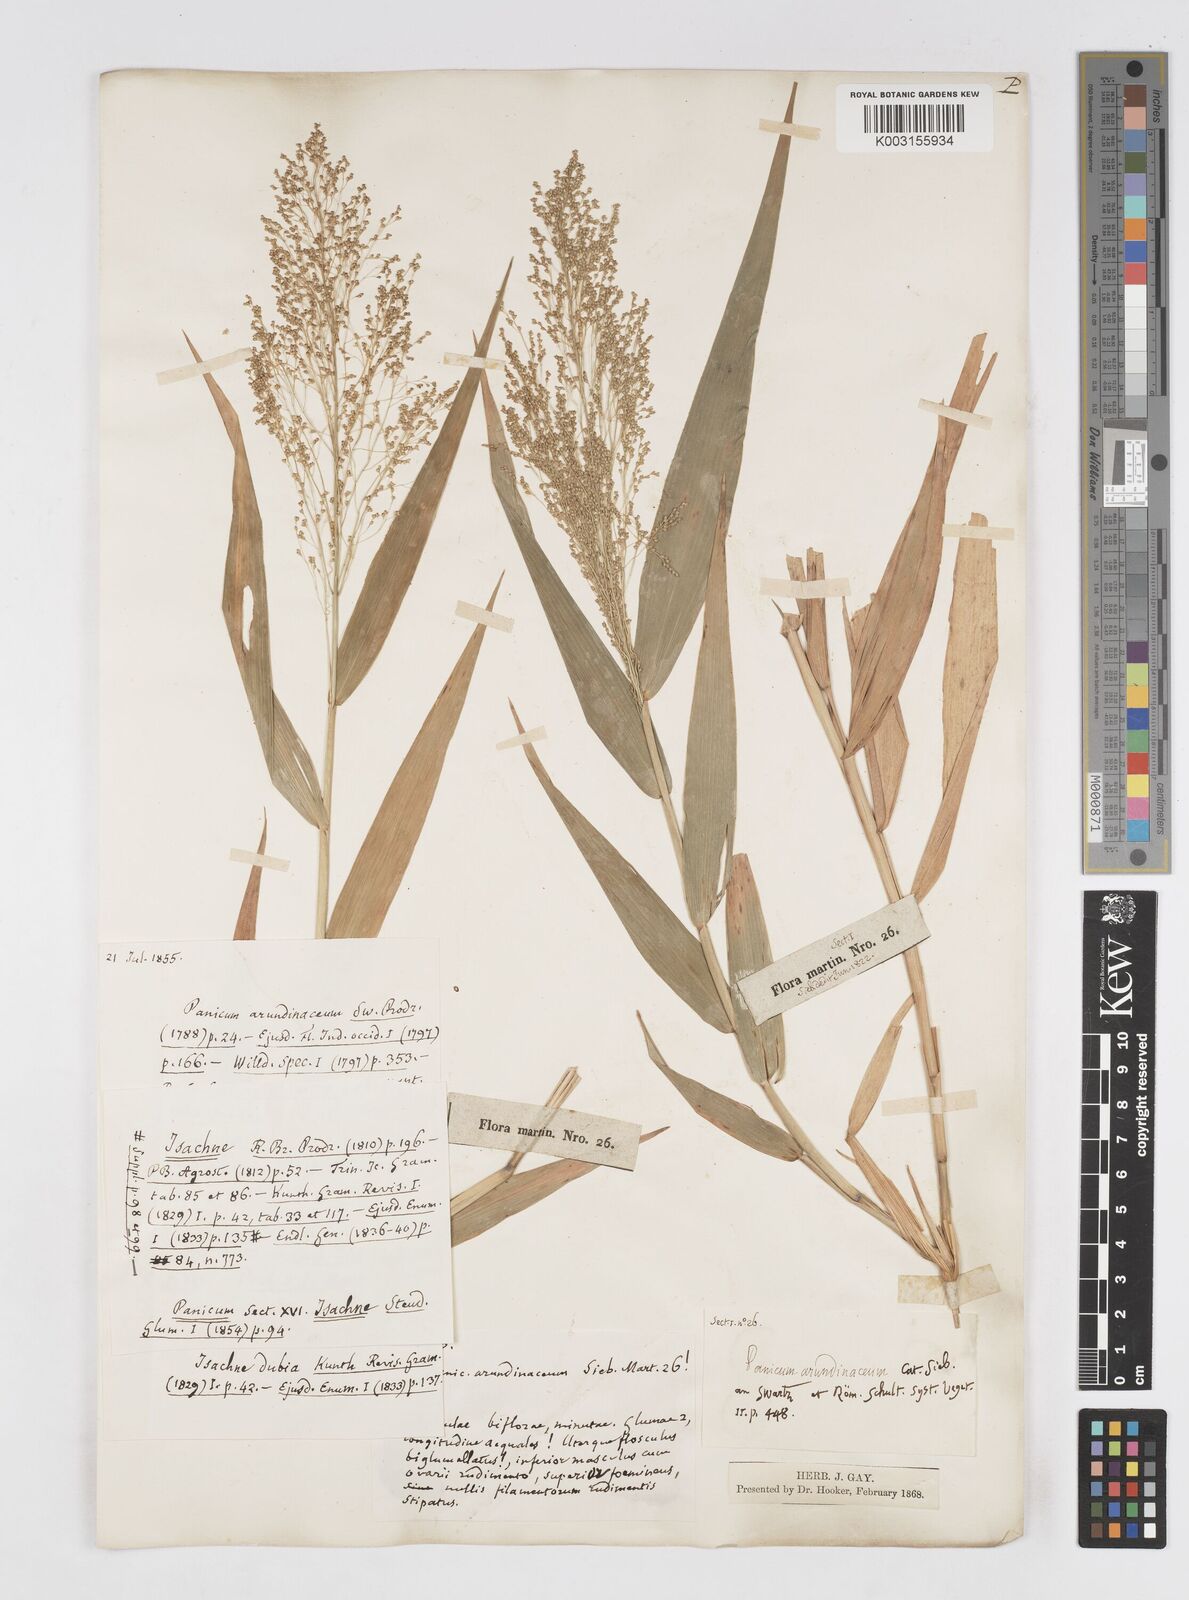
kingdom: Plantae
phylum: Tracheophyta
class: Liliopsida
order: Poales
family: Poaceae
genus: Isachne
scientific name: Isachne disperma
